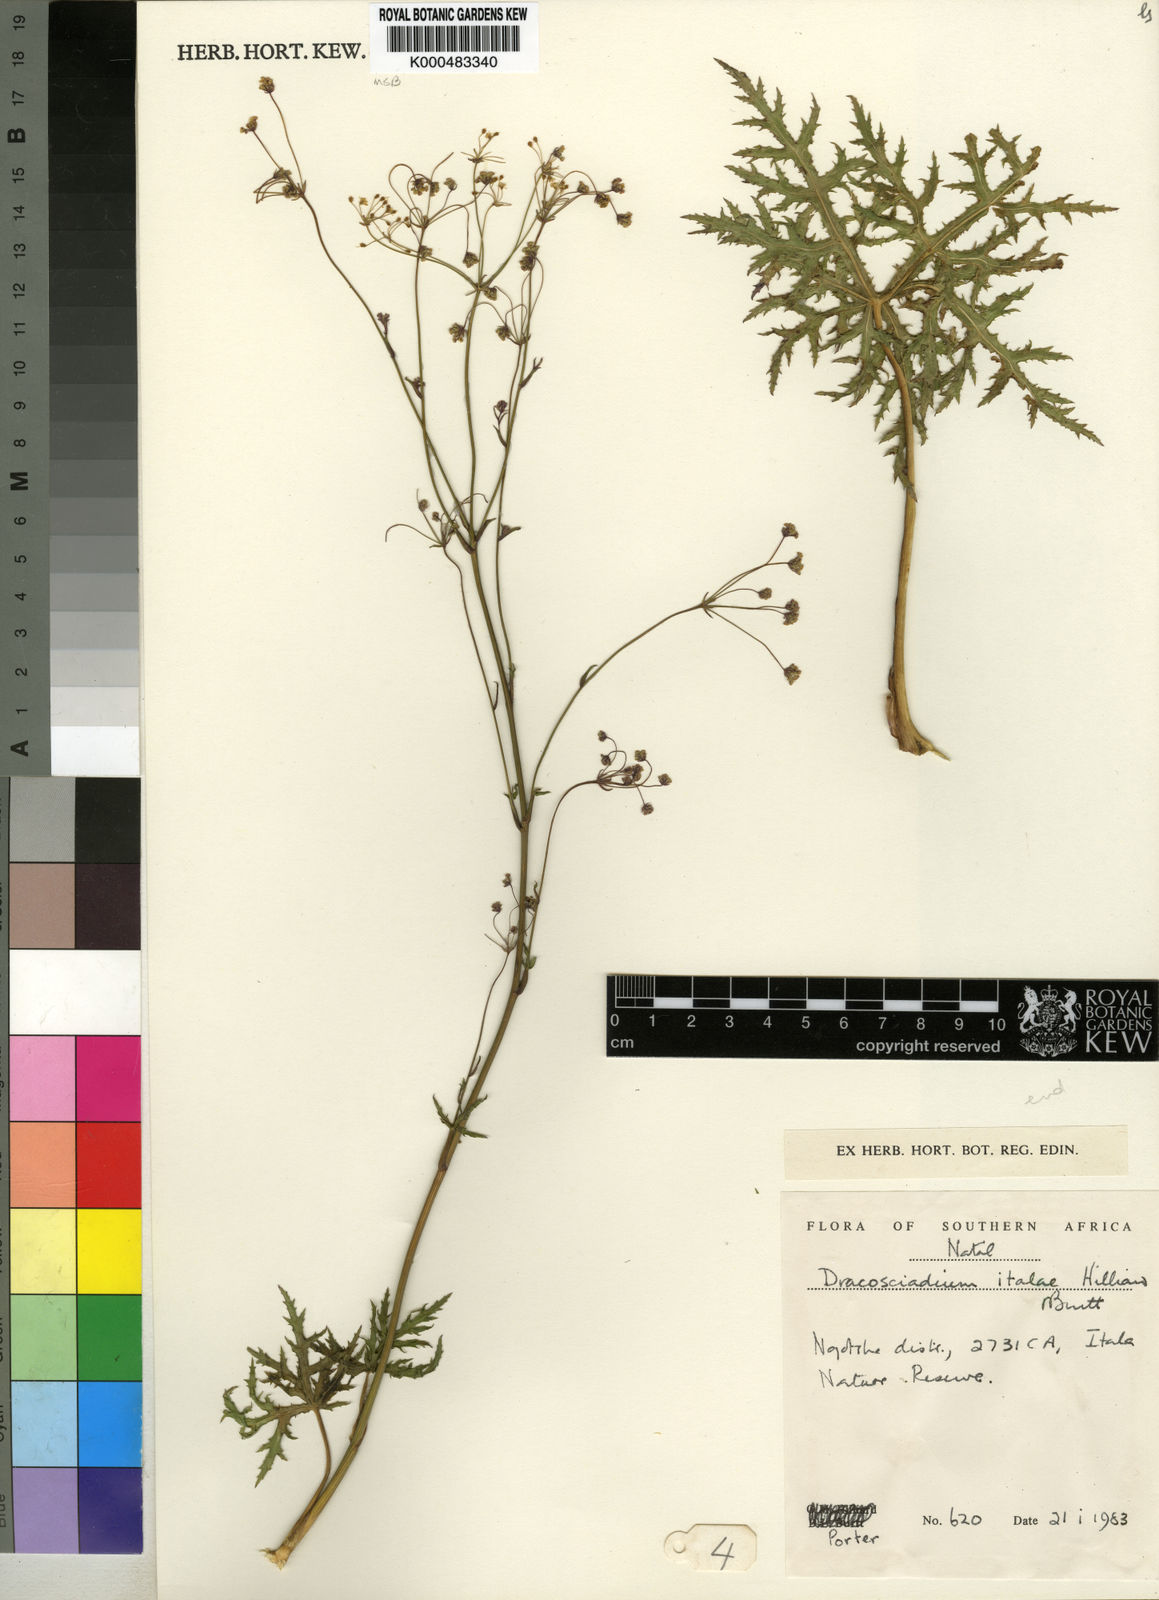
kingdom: Plantae
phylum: Tracheophyta
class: Magnoliopsida
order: Apiales
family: Apiaceae
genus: Dracosciadium
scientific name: Dracosciadium italae
